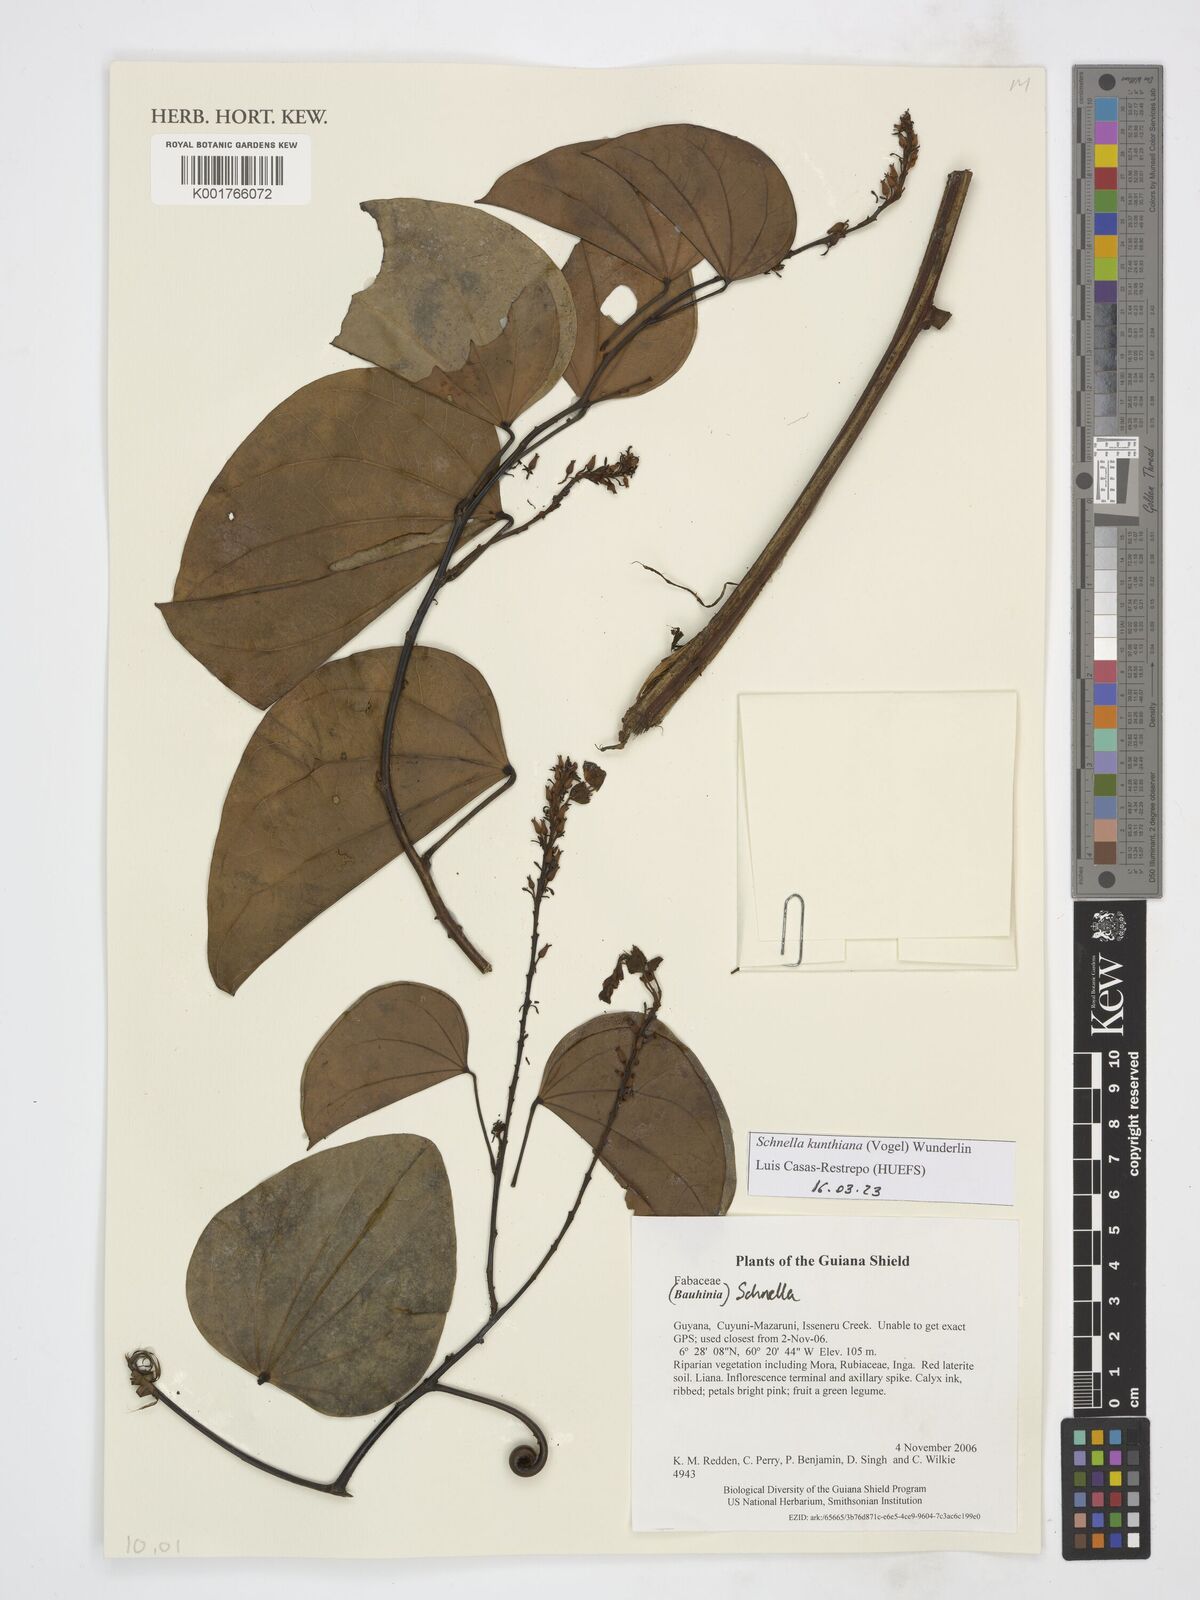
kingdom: Plantae
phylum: Tracheophyta
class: Magnoliopsida
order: Fabales
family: Fabaceae
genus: Schnella
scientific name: Schnella kunthiana
